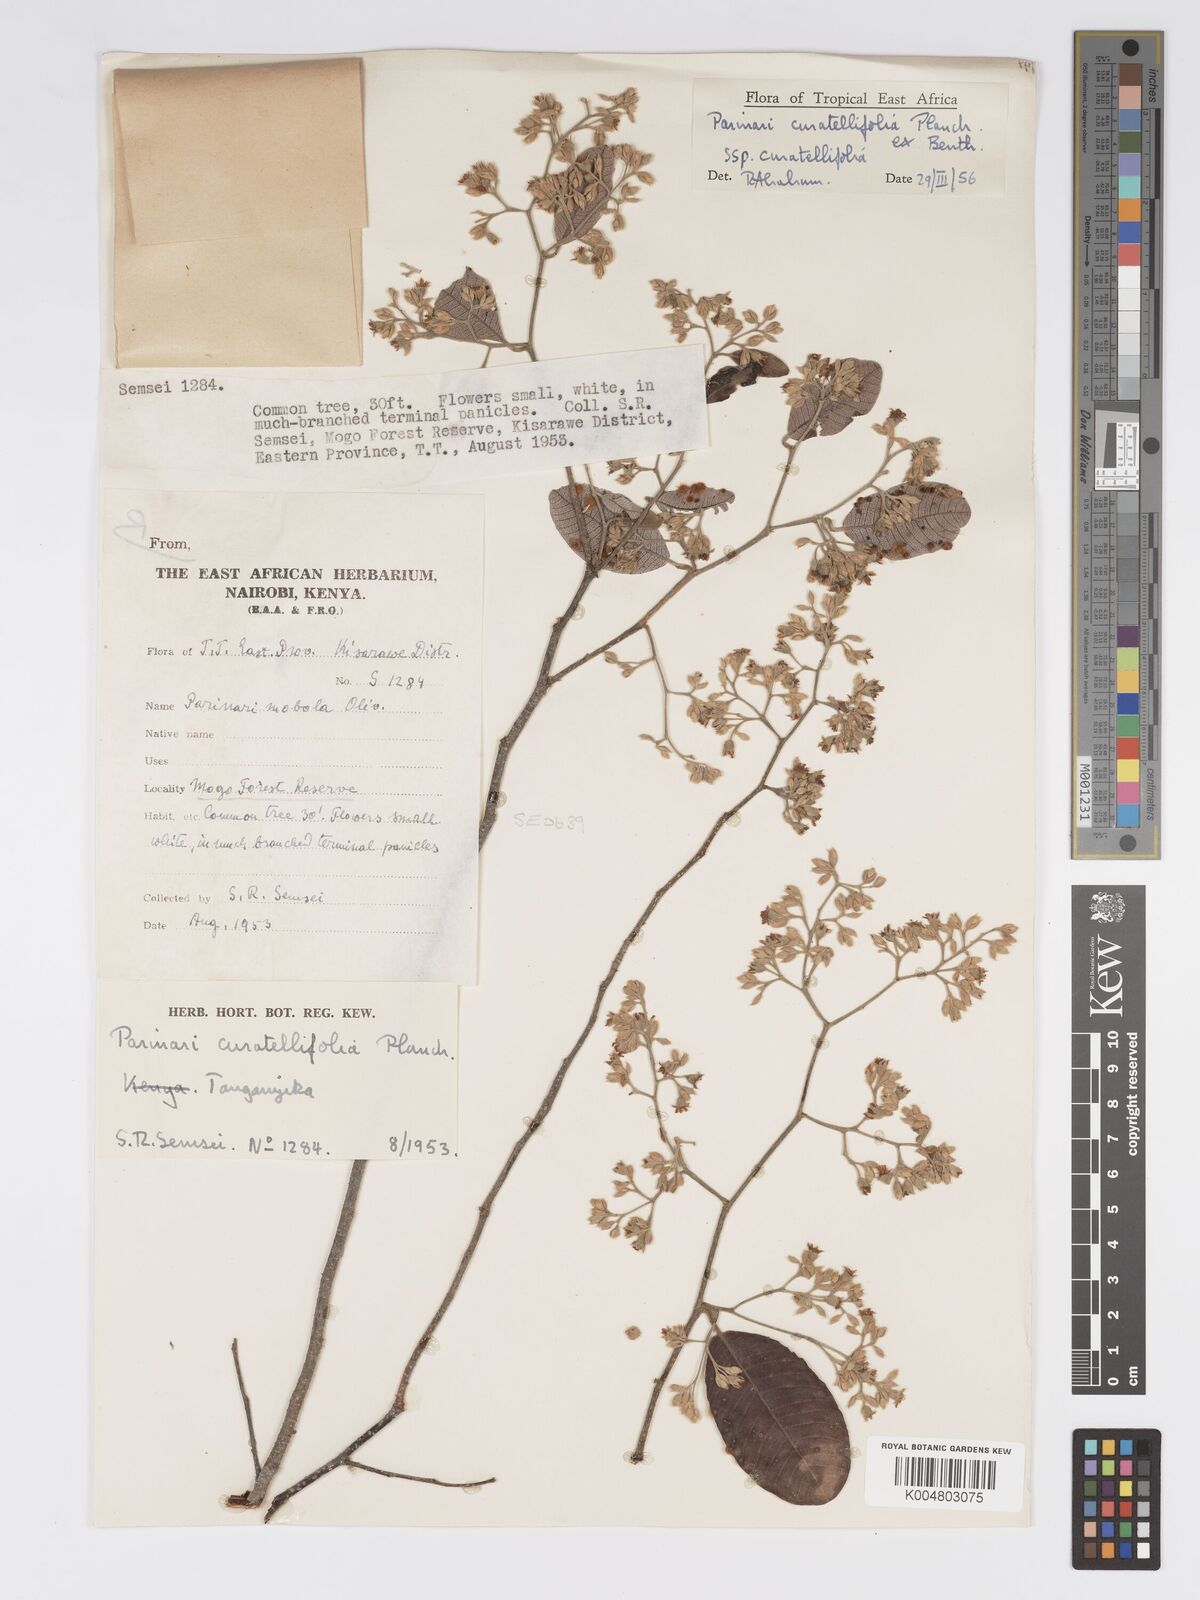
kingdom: Plantae
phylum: Tracheophyta
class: Magnoliopsida
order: Malpighiales
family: Chrysobalanaceae
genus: Parinari
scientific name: Parinari curatellifolia
